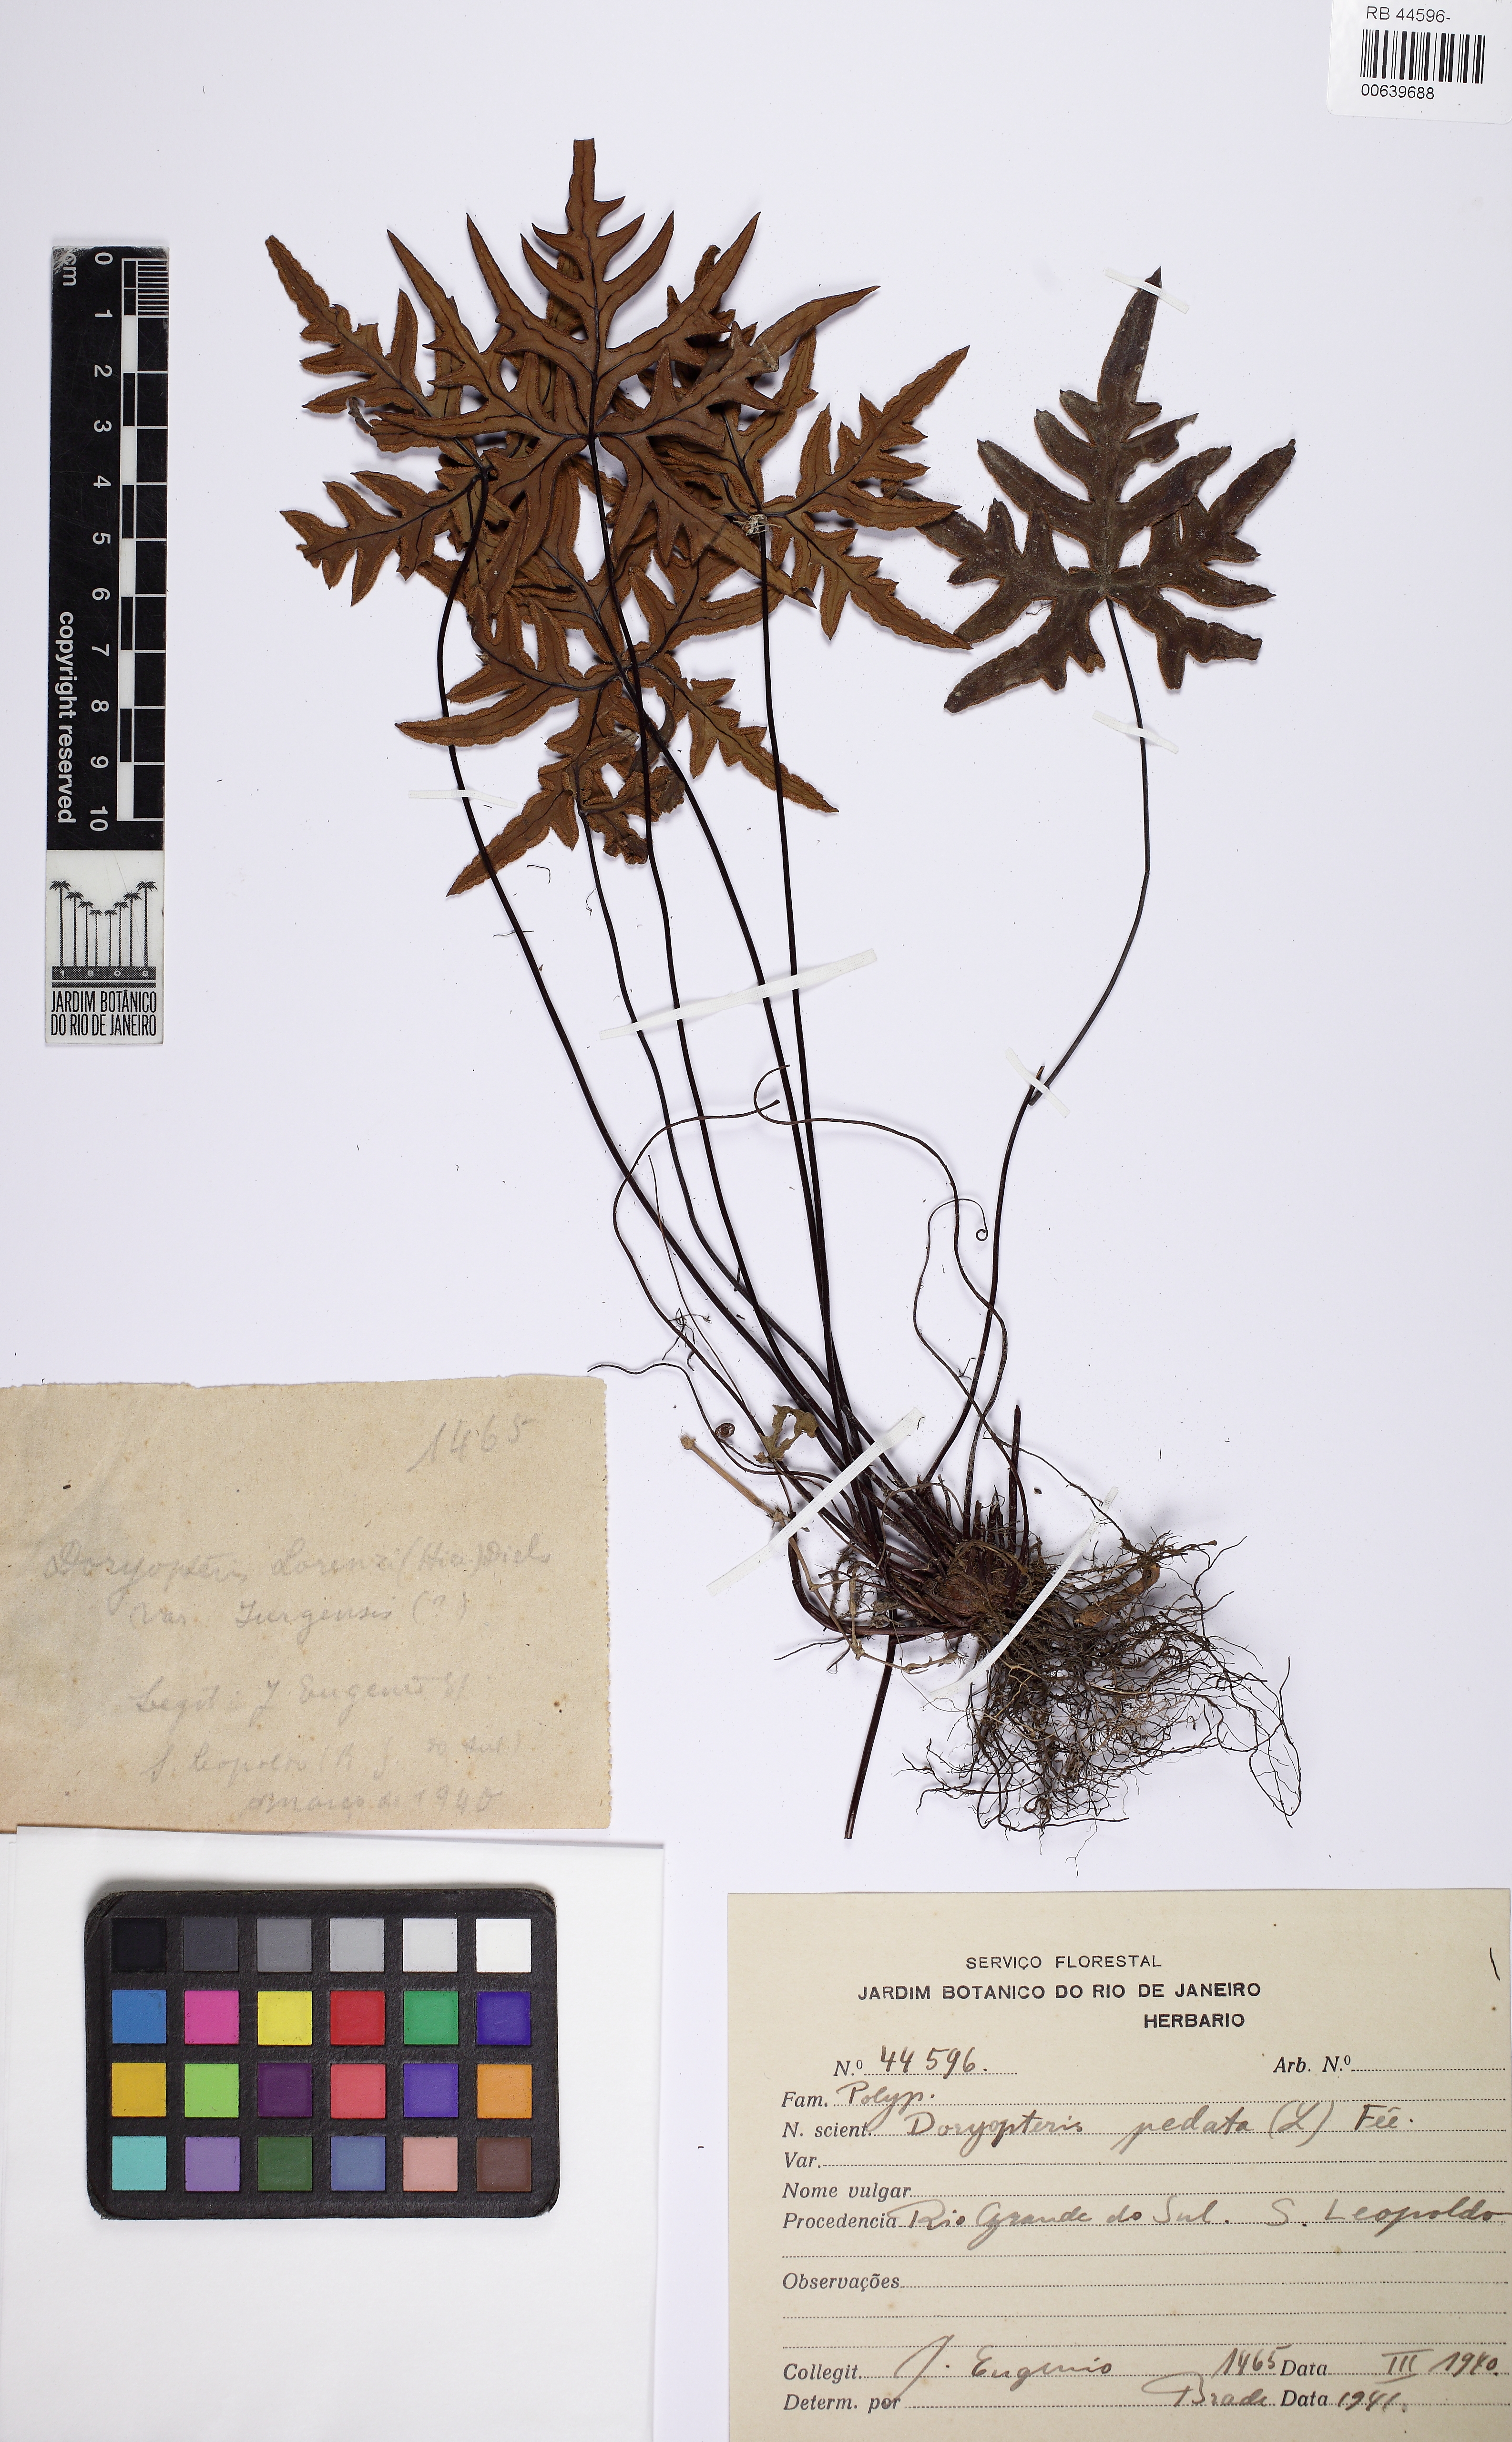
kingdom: Plantae
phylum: Tracheophyta
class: Polypodiopsida
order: Polypodiales
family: Pteridaceae
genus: Doryopteris
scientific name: Doryopteris pentagona
